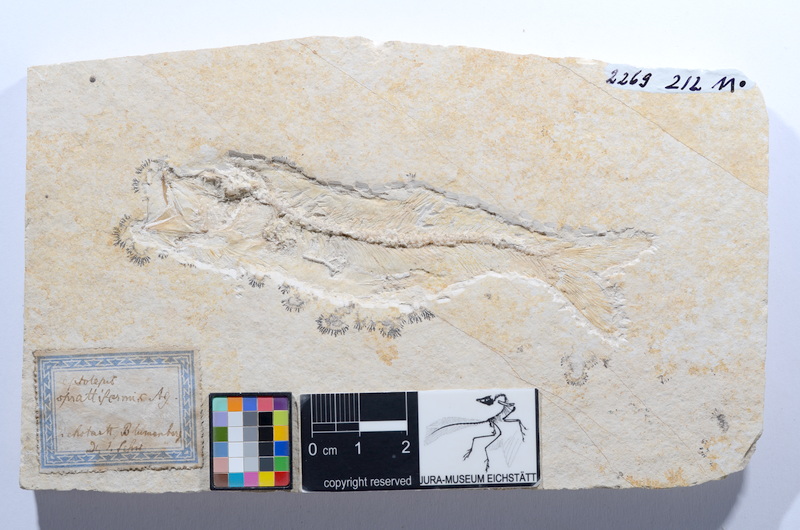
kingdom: Animalia
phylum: Chordata
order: Elopiformes
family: Anaethalionidae
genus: Anaethalion
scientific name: Anaethalion angustus
